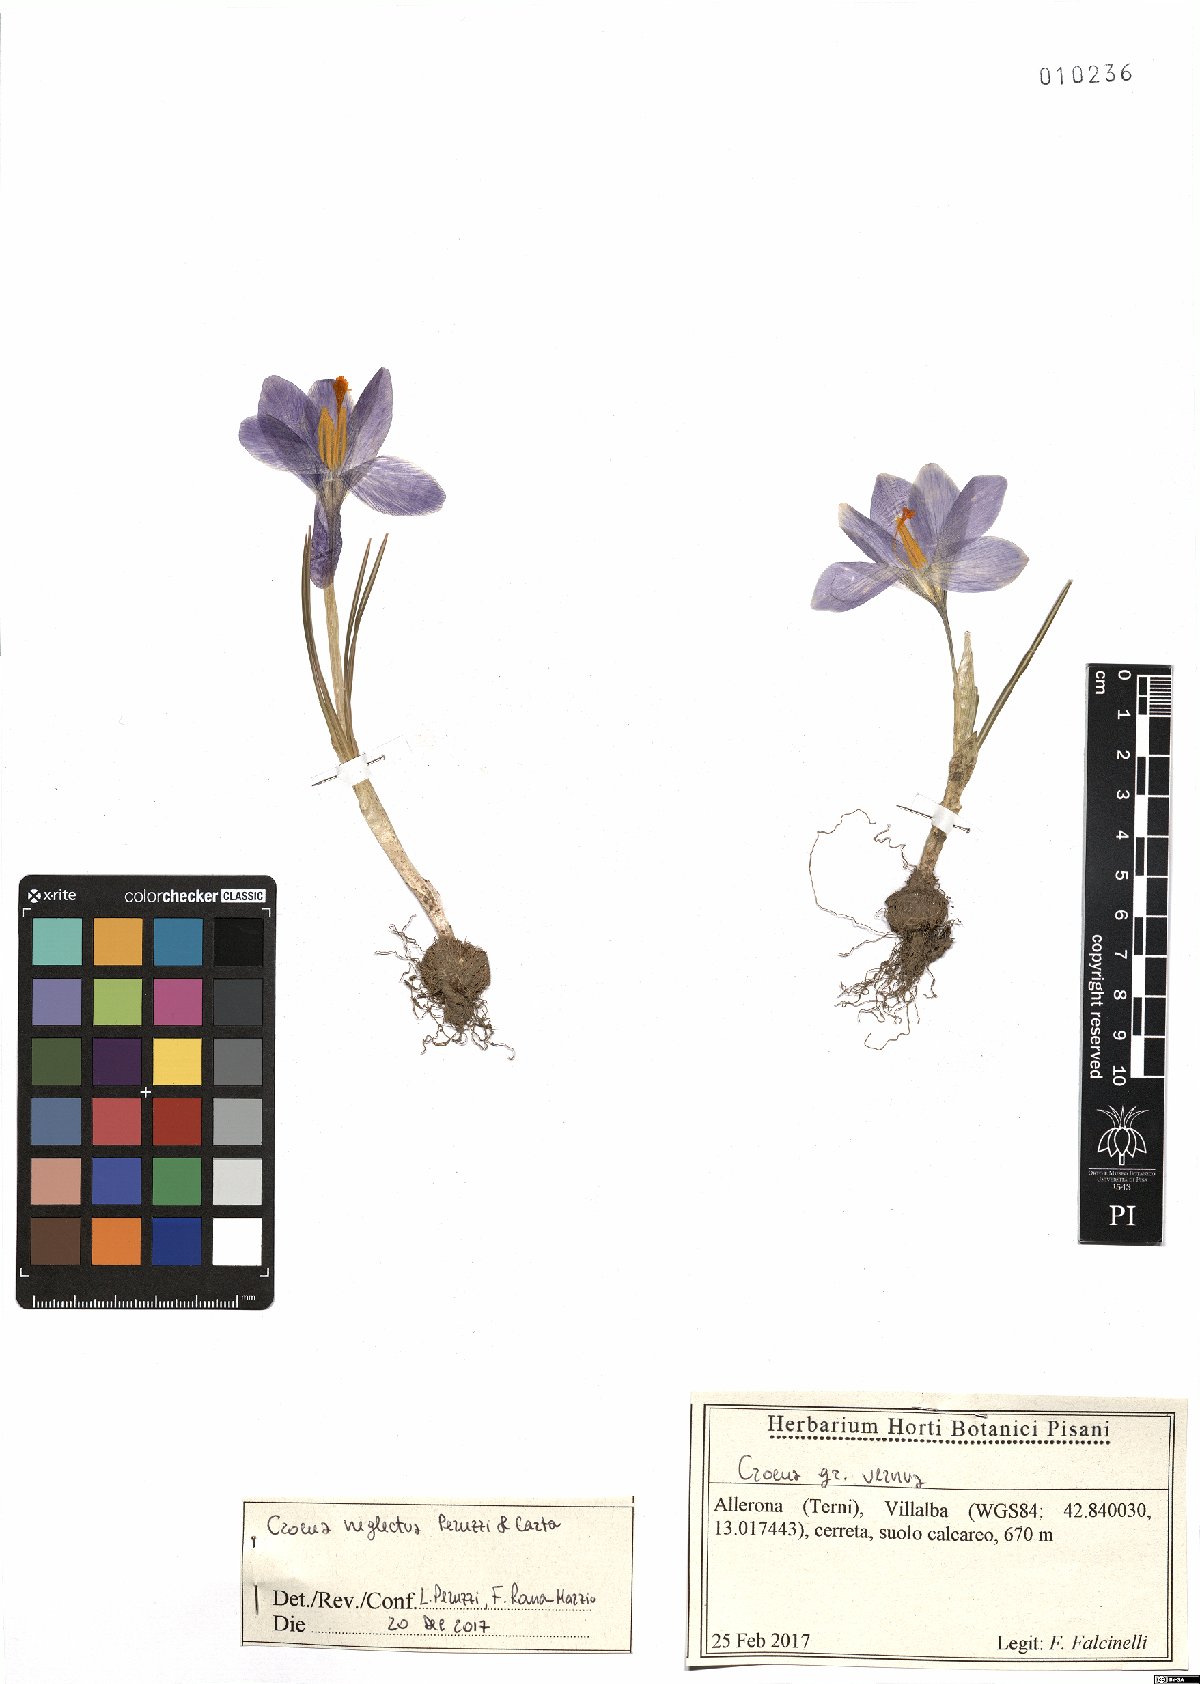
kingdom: Plantae
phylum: Tracheophyta
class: Liliopsida
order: Asparagales
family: Iridaceae
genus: Crocus
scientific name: Crocus neglectus
